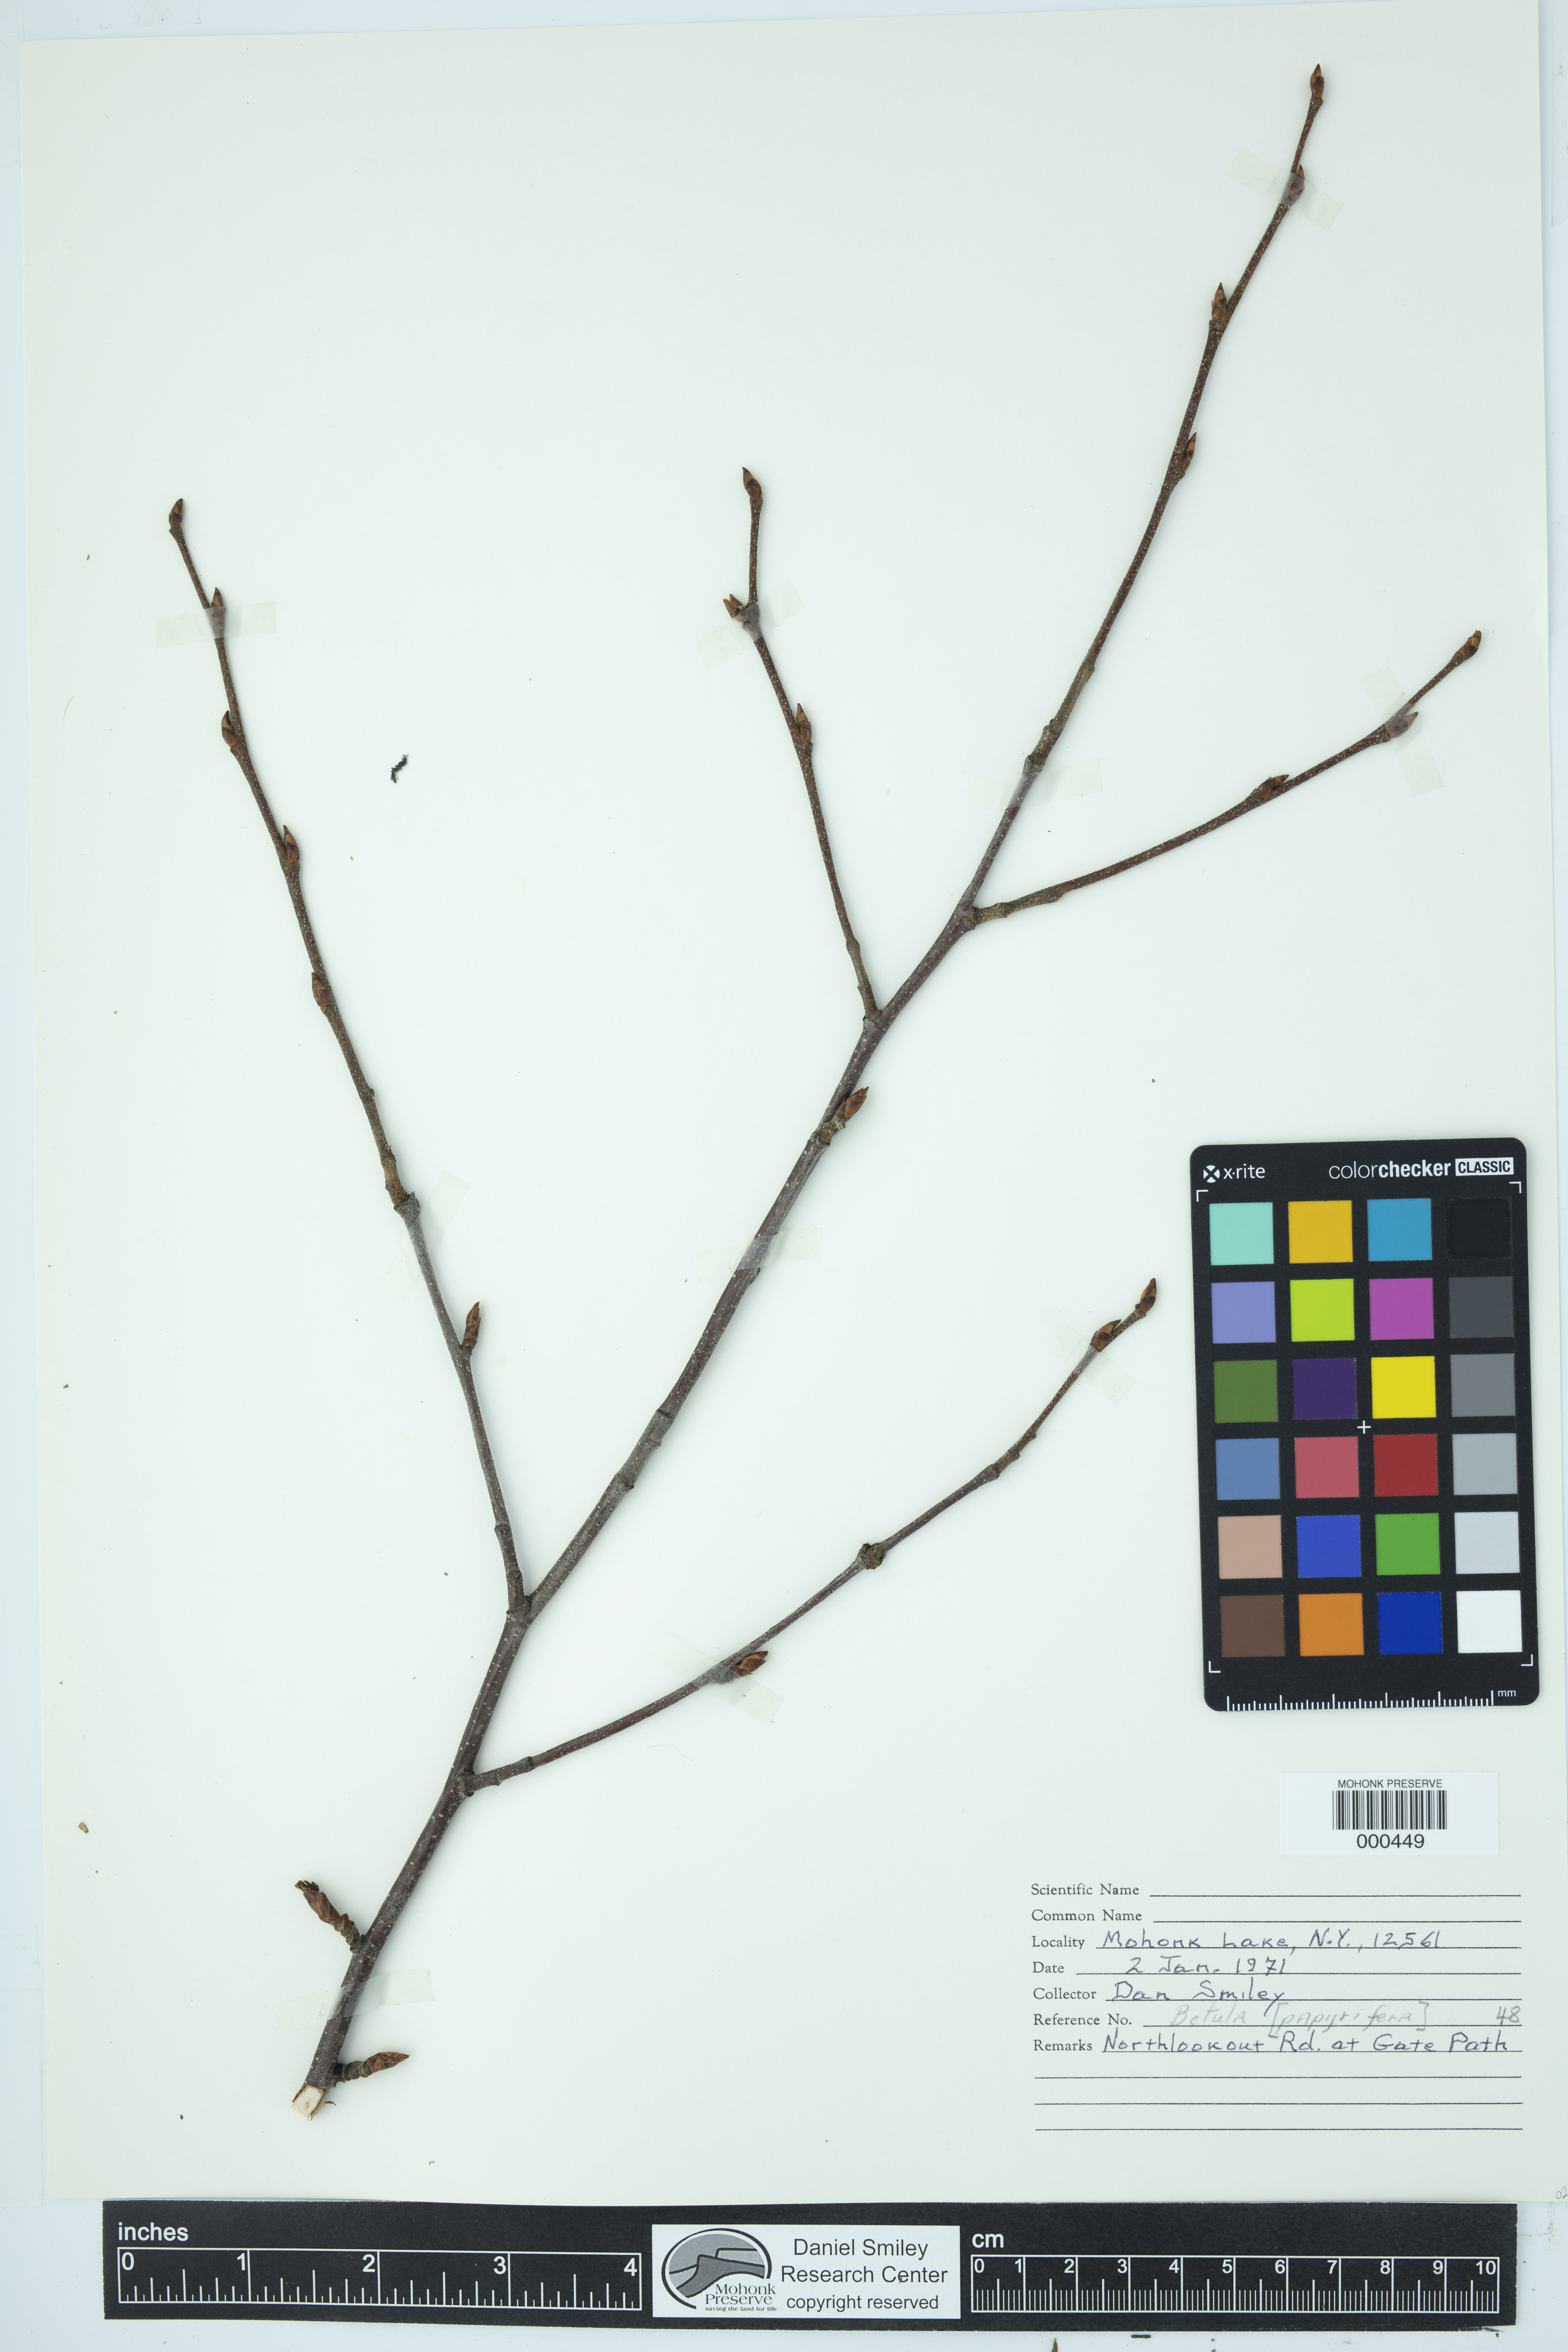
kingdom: Plantae
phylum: Tracheophyta
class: Magnoliopsida
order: Fagales
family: Betulaceae
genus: Betula
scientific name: Betula papyrifera
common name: Paper birch
